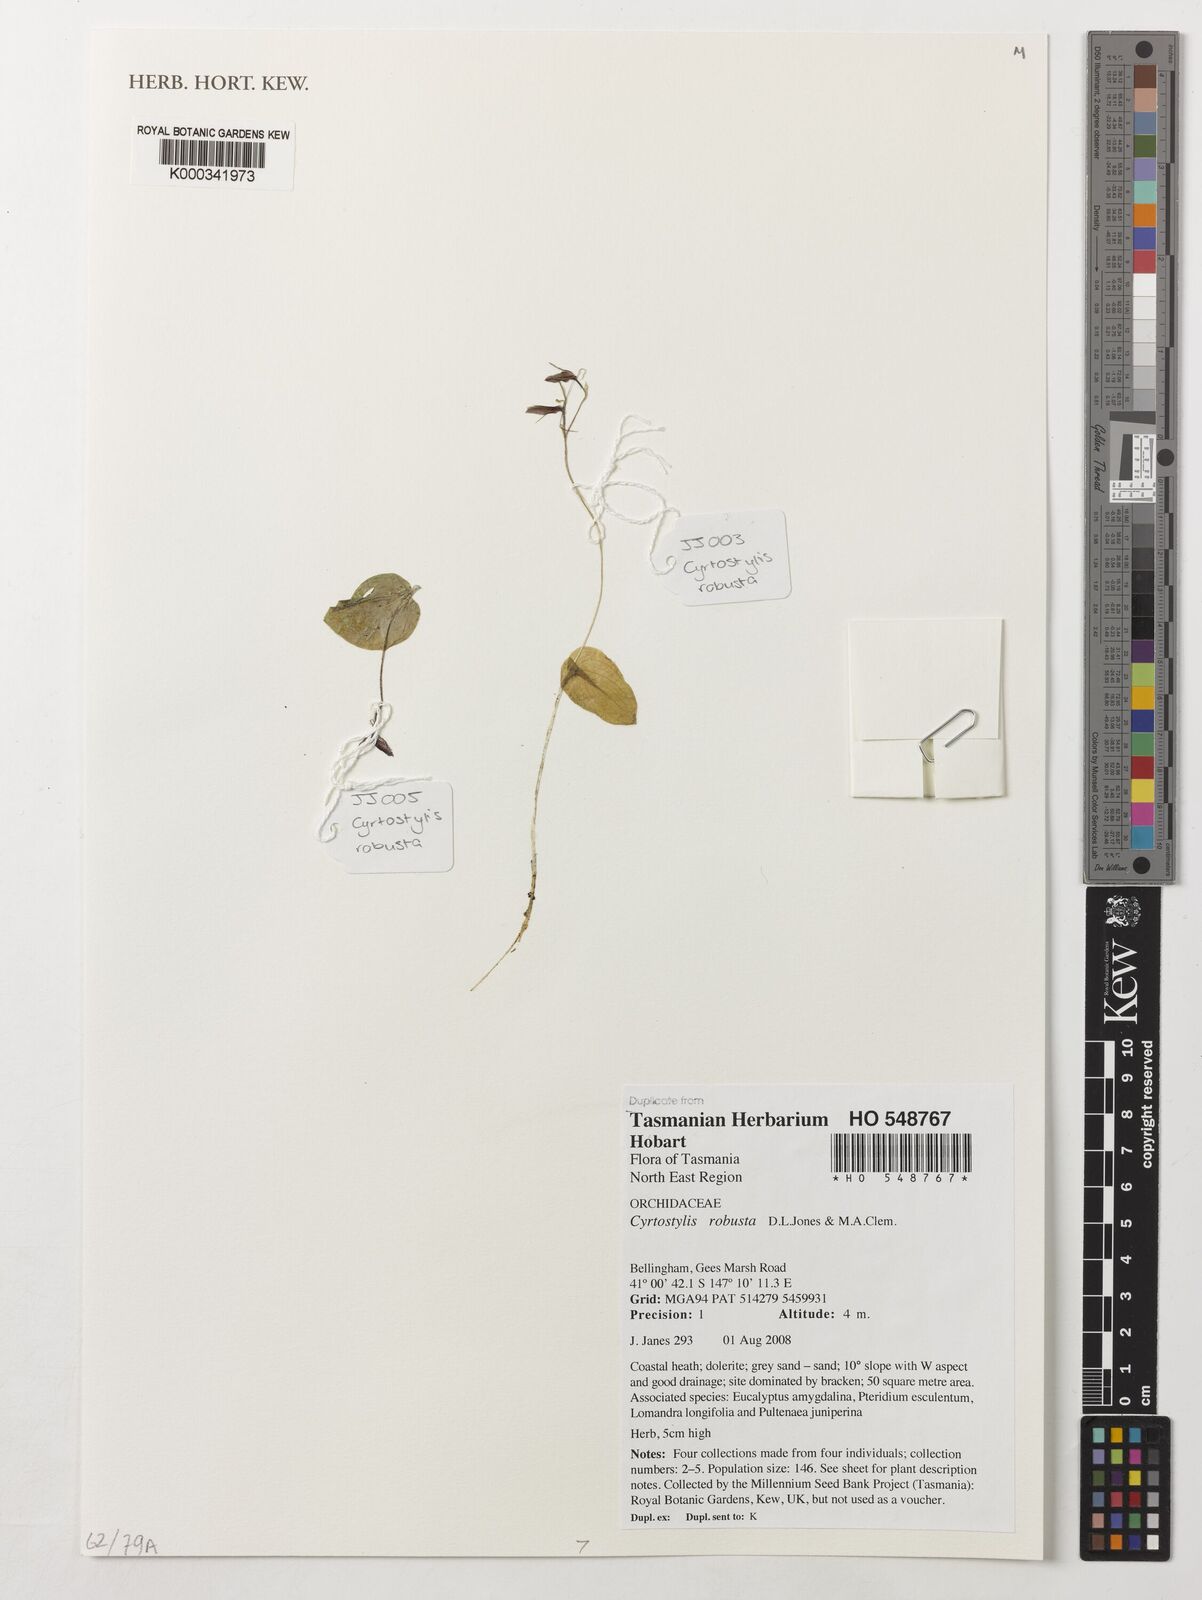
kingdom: Plantae
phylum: Tracheophyta
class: Liliopsida
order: Asparagales
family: Orchidaceae
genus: Cyrtostylis
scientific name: Cyrtostylis robusta
